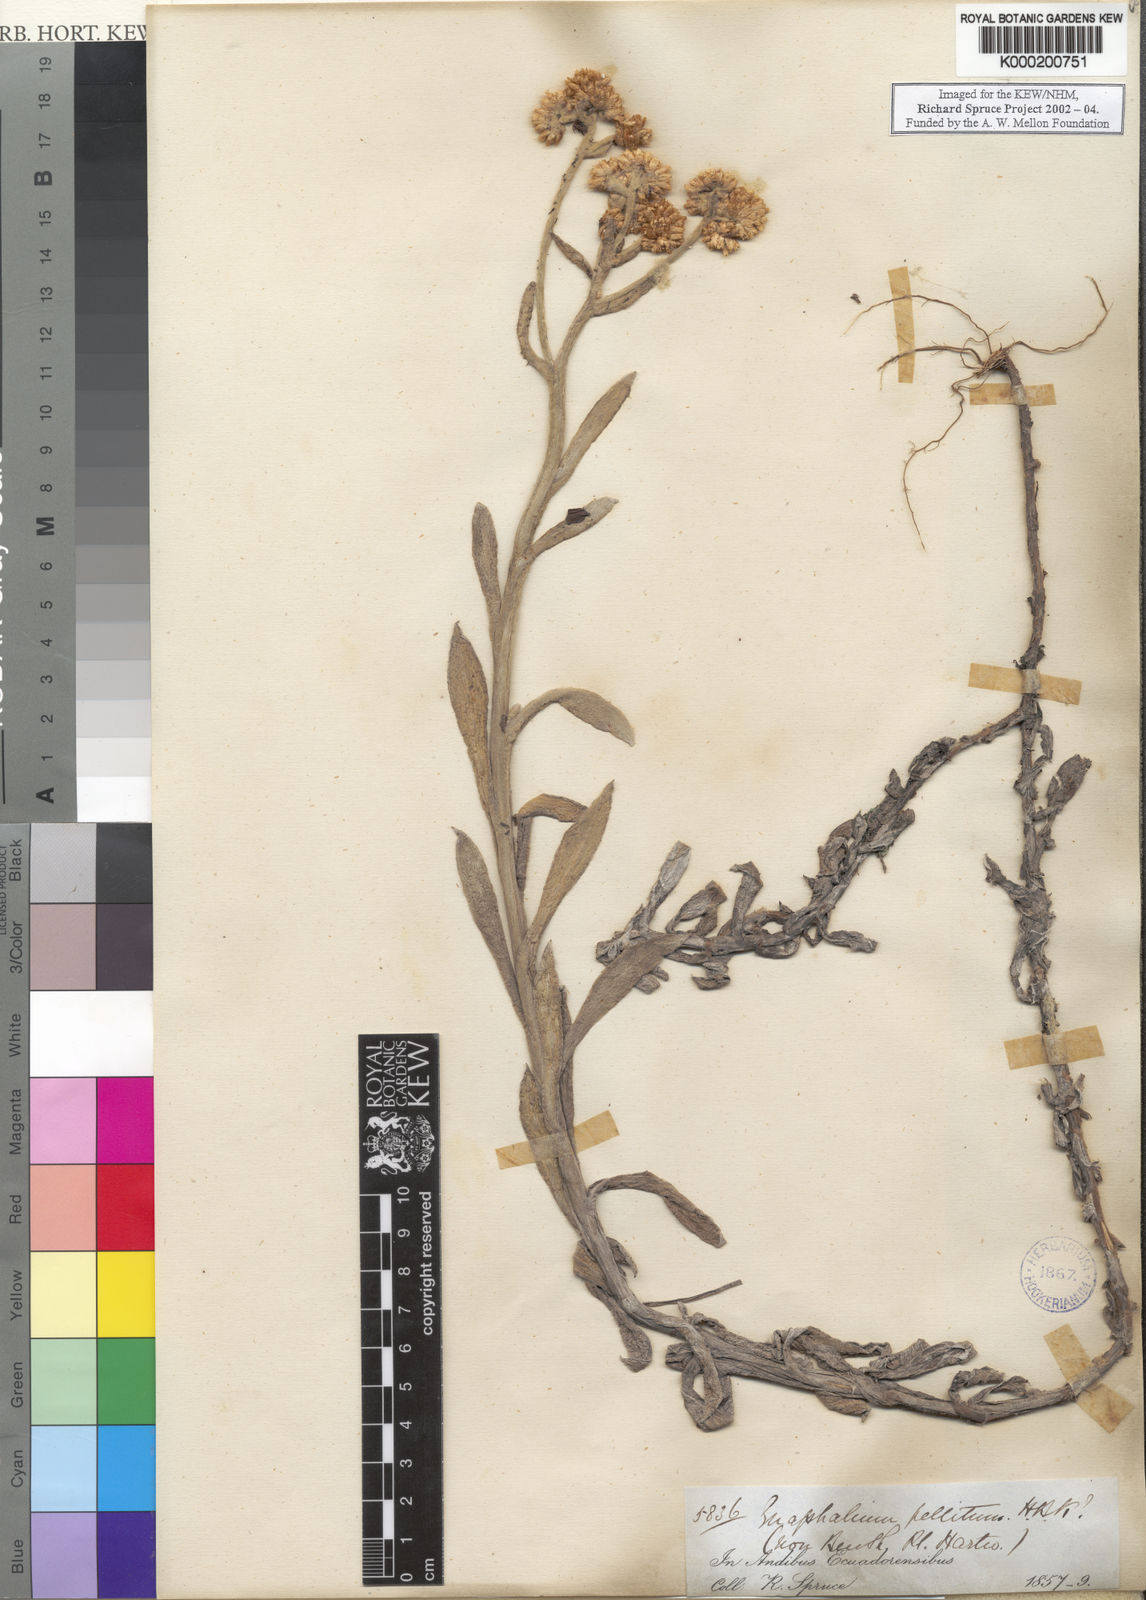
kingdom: Plantae
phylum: Tracheophyta
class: Magnoliopsida
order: Asterales
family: Asteraceae
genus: Achyrocline
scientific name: Achyrocline
